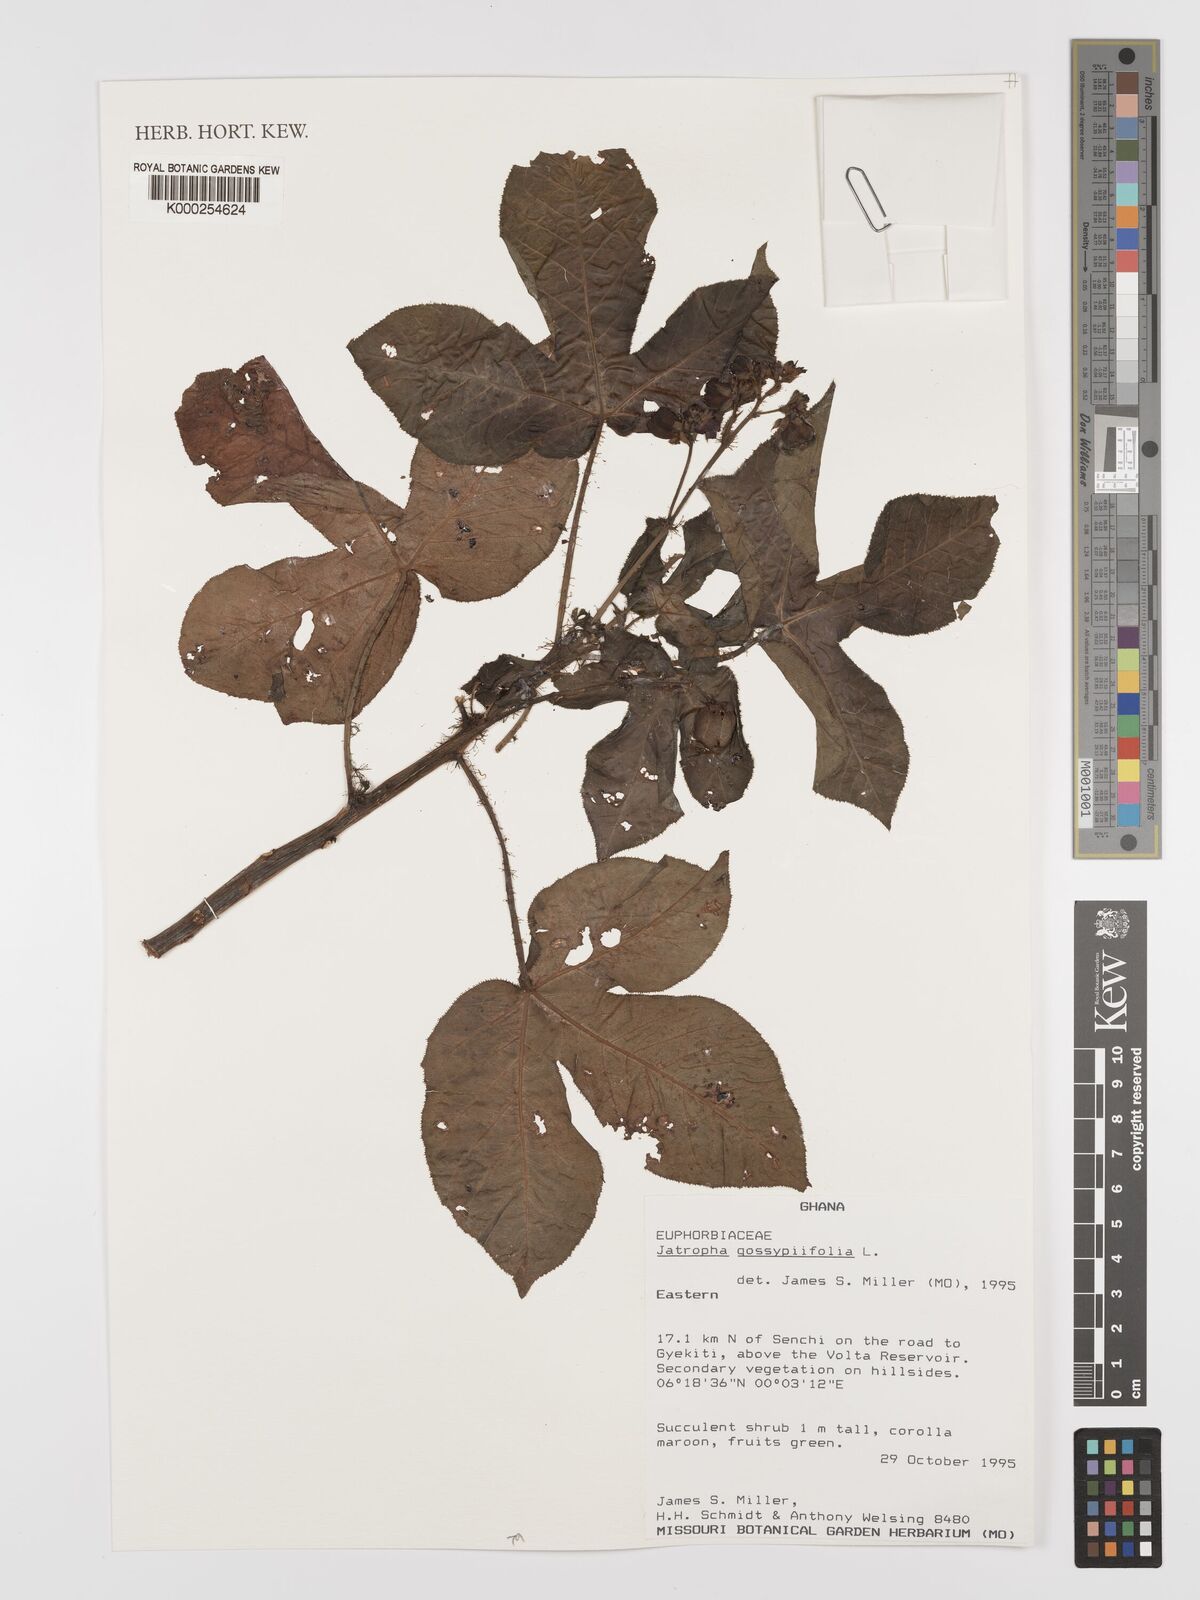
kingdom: Plantae
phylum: Tracheophyta
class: Magnoliopsida
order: Malpighiales
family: Euphorbiaceae
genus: Jatropha
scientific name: Jatropha gossypiifolia
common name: Bellyache bush
